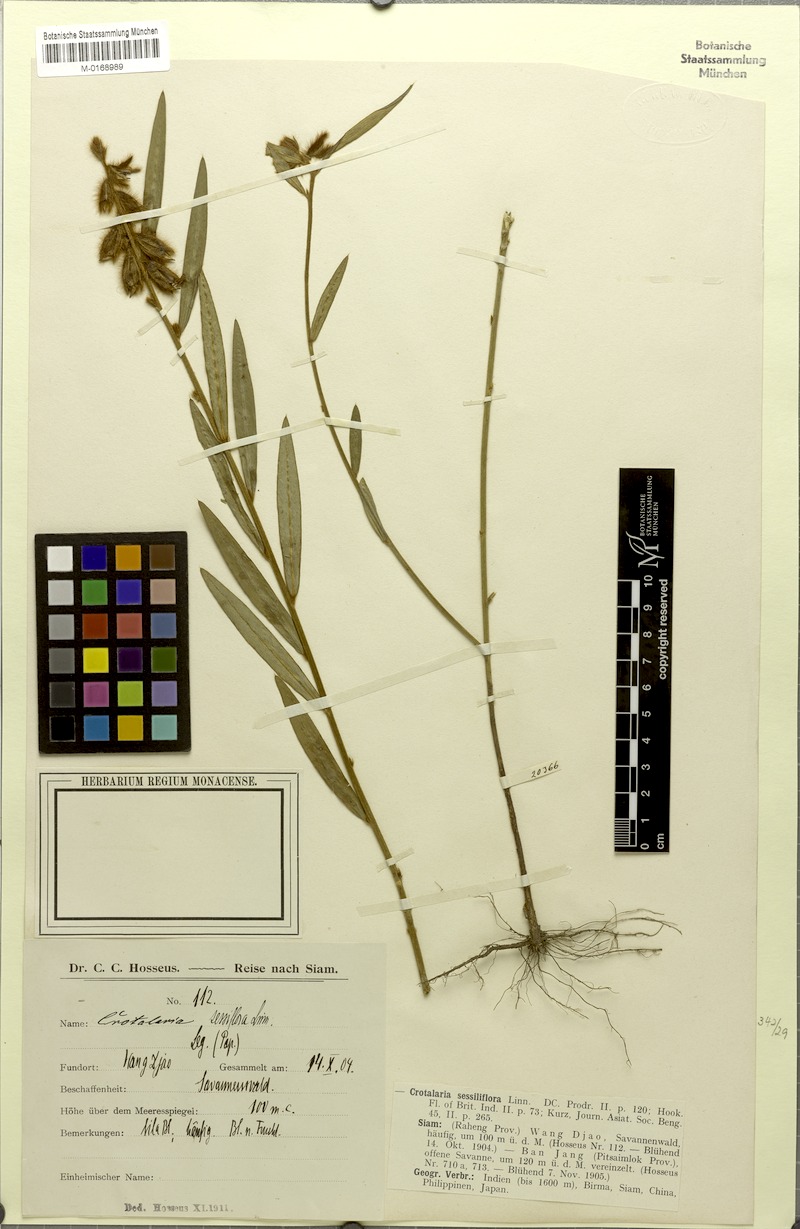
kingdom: Plantae
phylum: Tracheophyta
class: Magnoliopsida
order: Fabales
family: Fabaceae
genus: Crotalaria
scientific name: Crotalaria sessiliflora
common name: Rattlebox
